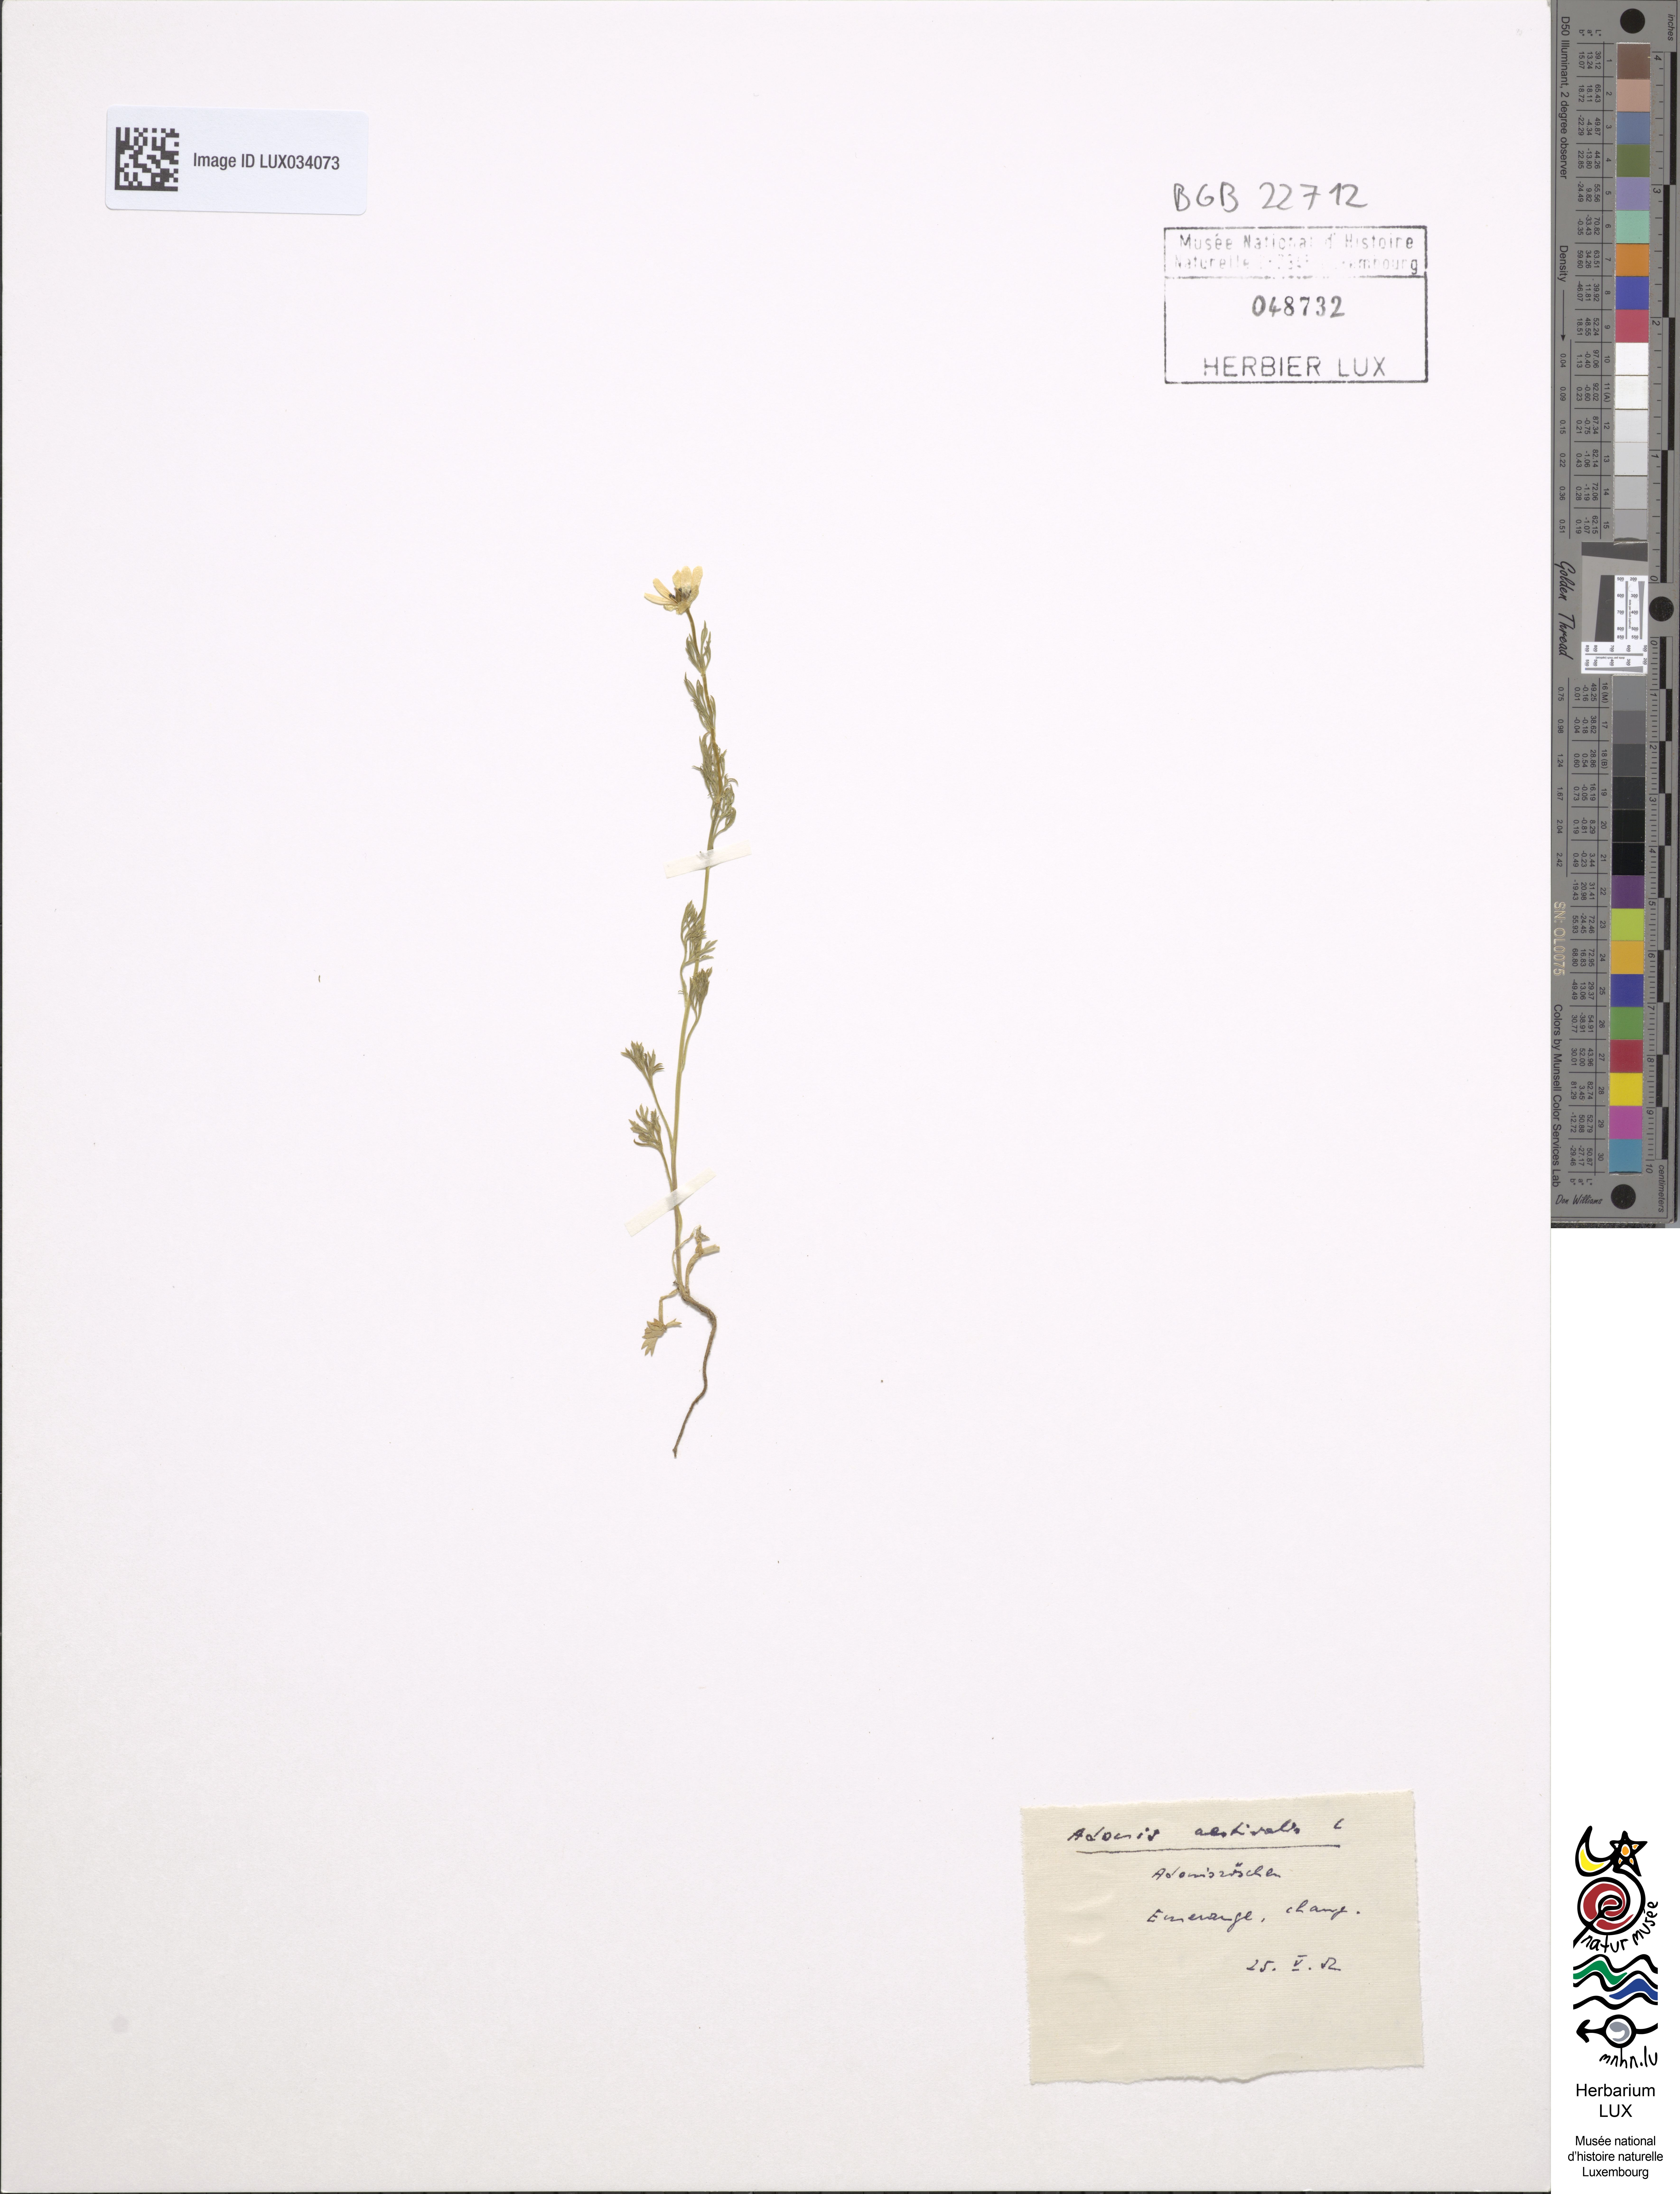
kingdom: Plantae
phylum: Tracheophyta
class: Magnoliopsida
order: Ranunculales
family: Ranunculaceae
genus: Adonis
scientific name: Adonis aestivalis
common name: Summer pheasant's-eye
